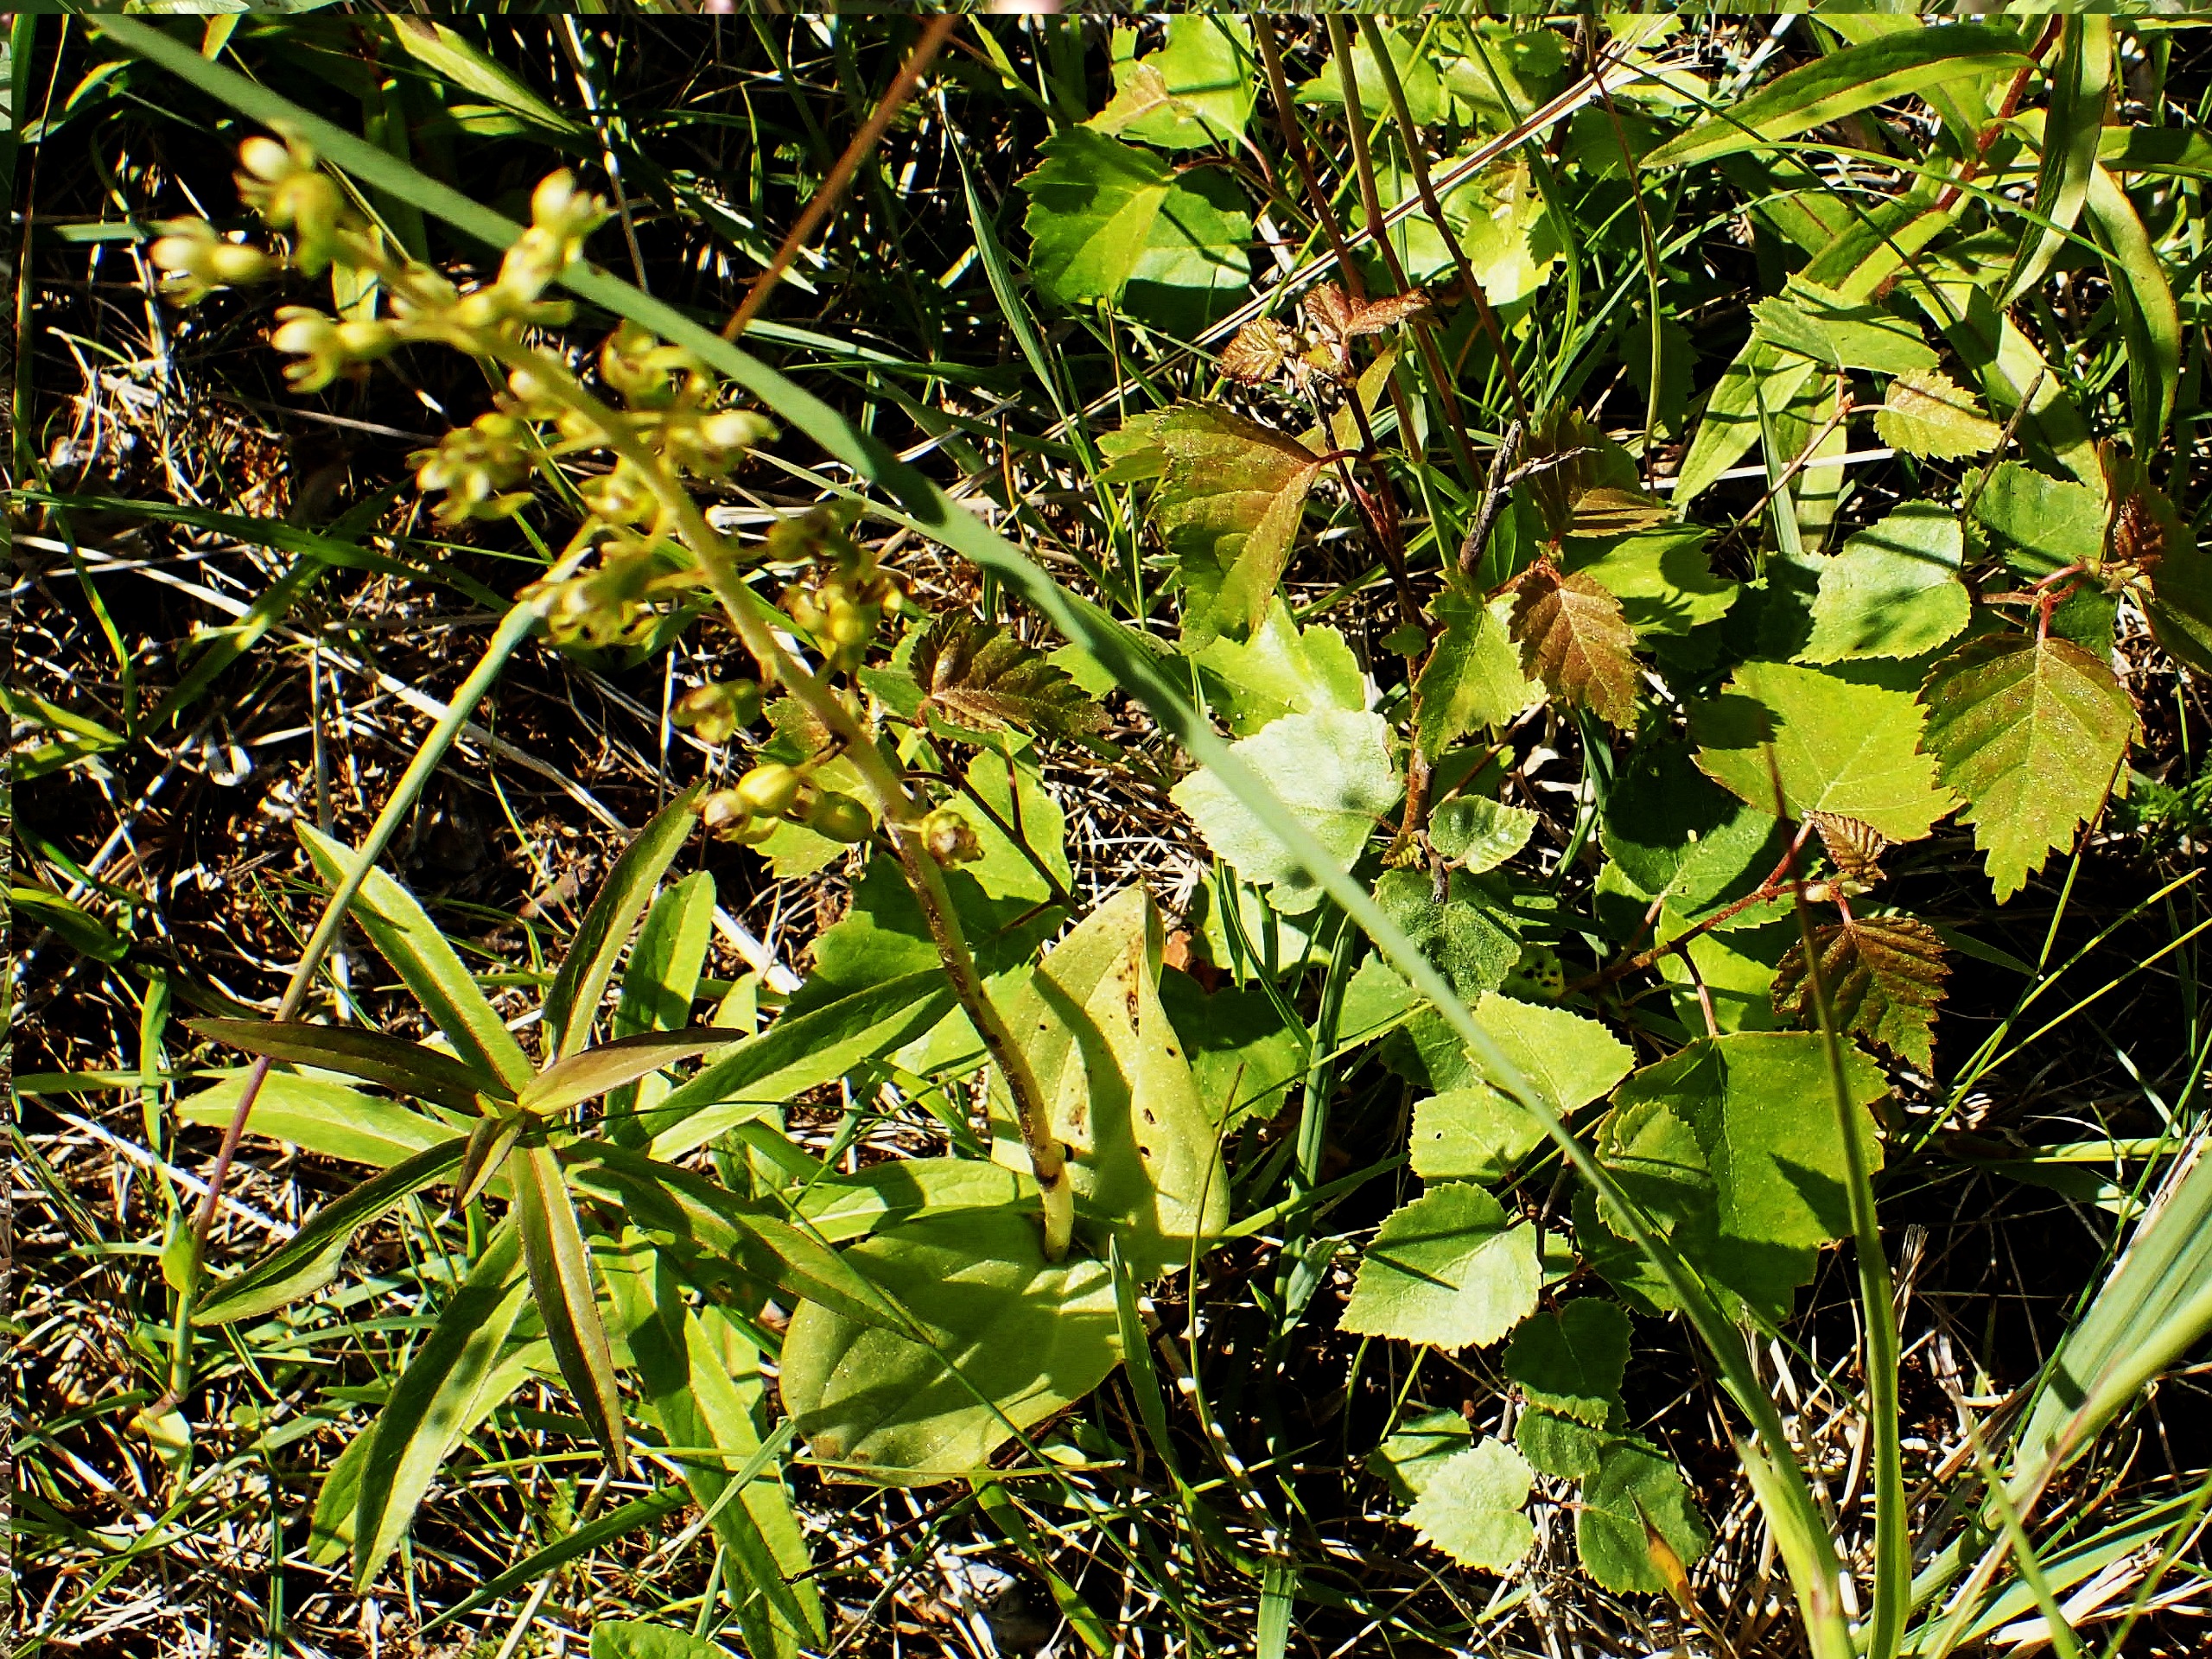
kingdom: Plantae
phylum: Tracheophyta
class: Liliopsida
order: Asparagales
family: Orchidaceae
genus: Neottia
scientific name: Neottia ovata
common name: Ægbladet fliglæbe
